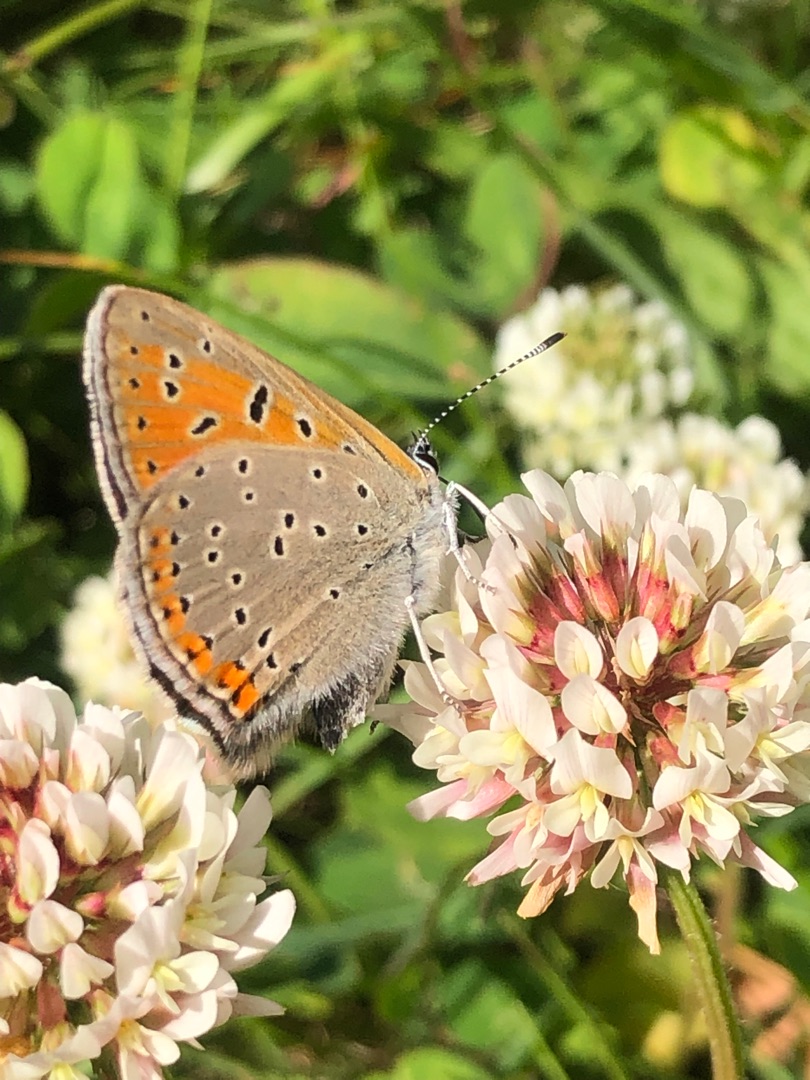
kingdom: Animalia
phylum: Arthropoda
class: Insecta
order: Lepidoptera
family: Lycaenidae
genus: Palaeochrysophanus
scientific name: Palaeochrysophanus hippothoe
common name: Violetrandet ildfugl
